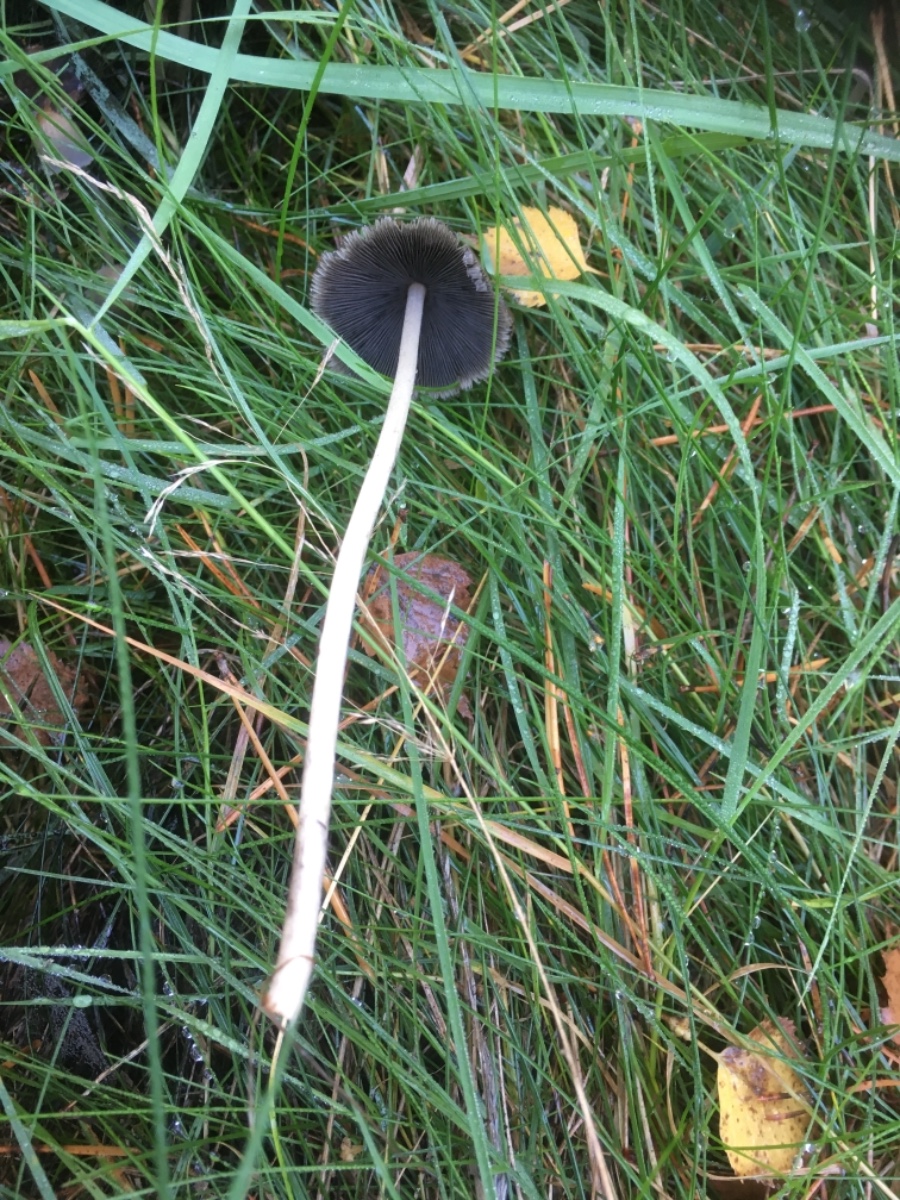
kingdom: Fungi
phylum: Basidiomycota
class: Agaricomycetes
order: Agaricales
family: Psathyrellaceae
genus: Coprinellus
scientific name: Coprinellus
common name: blækhat
